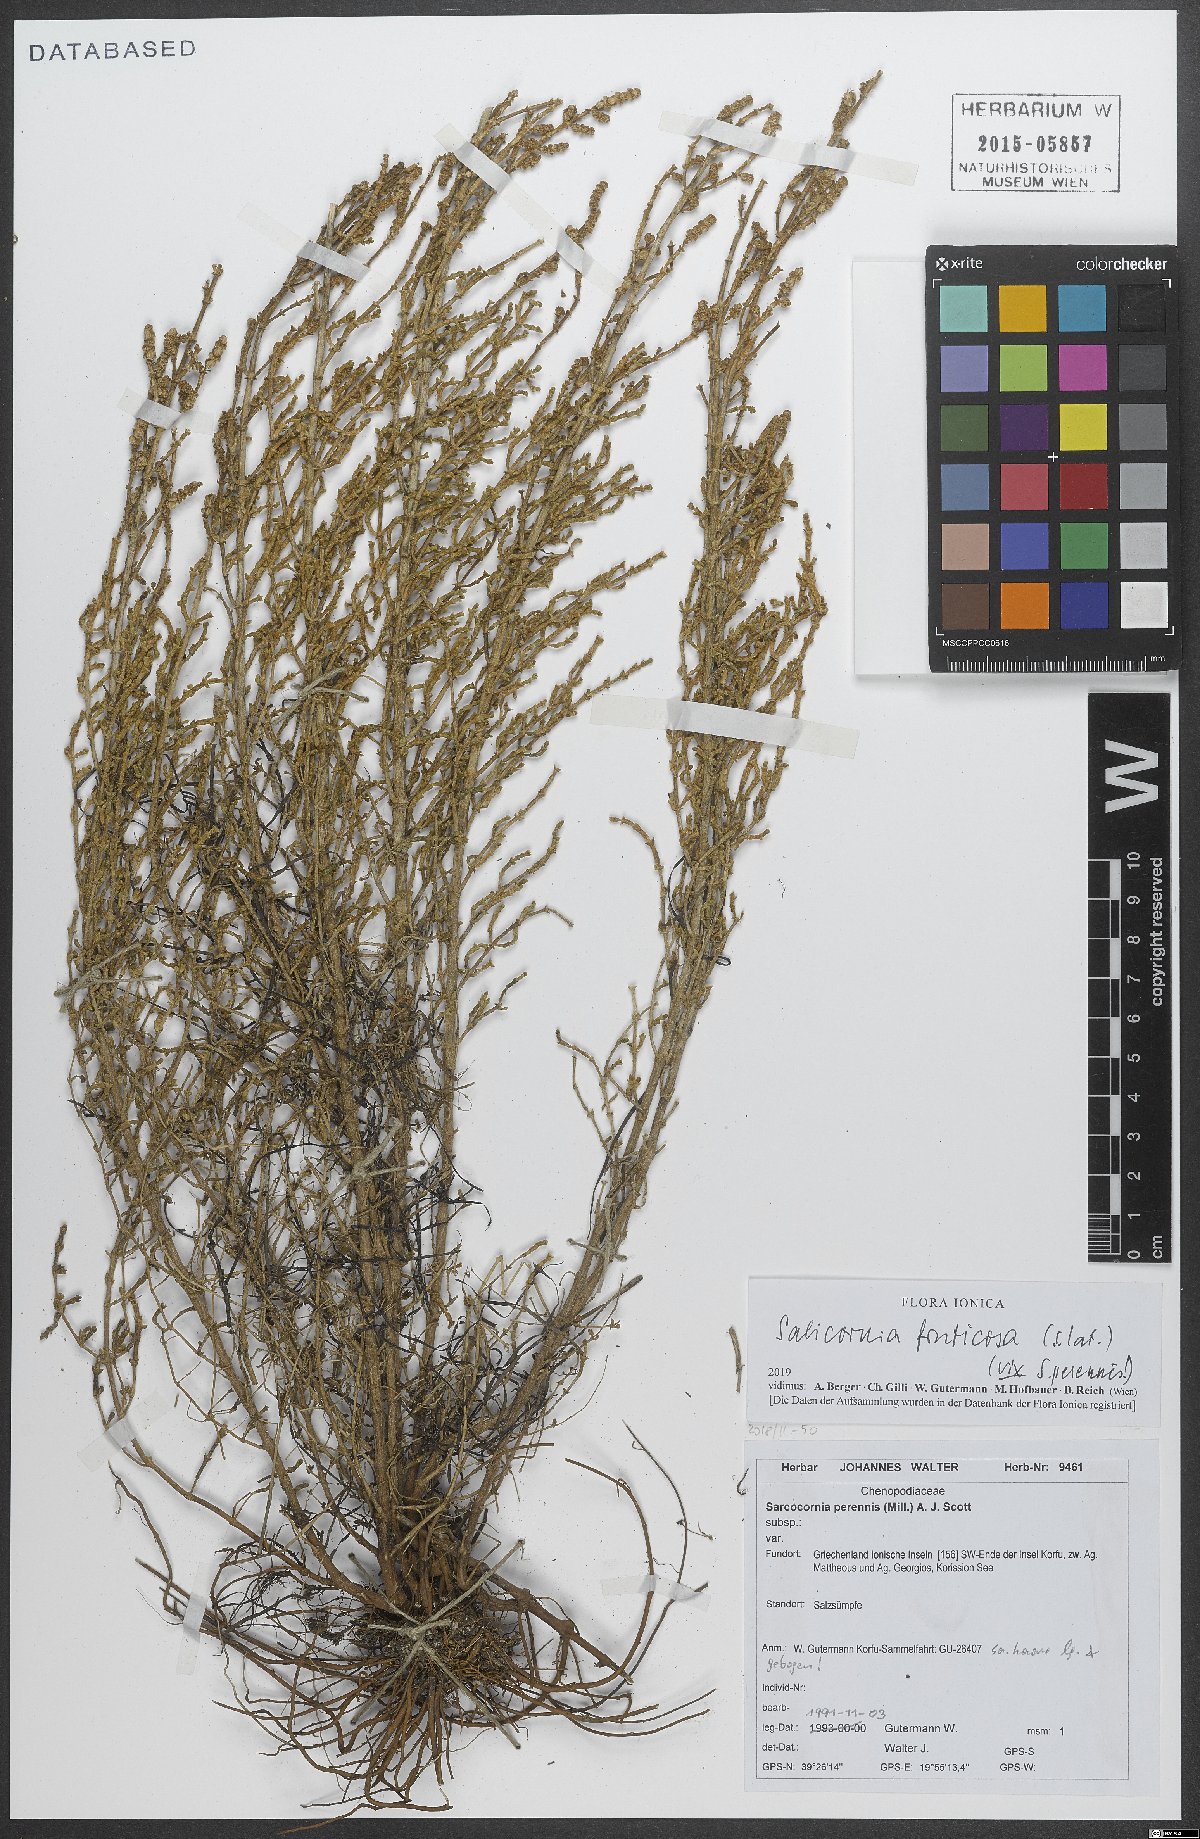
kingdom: Plantae
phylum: Tracheophyta
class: Magnoliopsida
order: Caryophyllales
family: Amaranthaceae
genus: Salicornia
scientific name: Salicornia fruticosa
